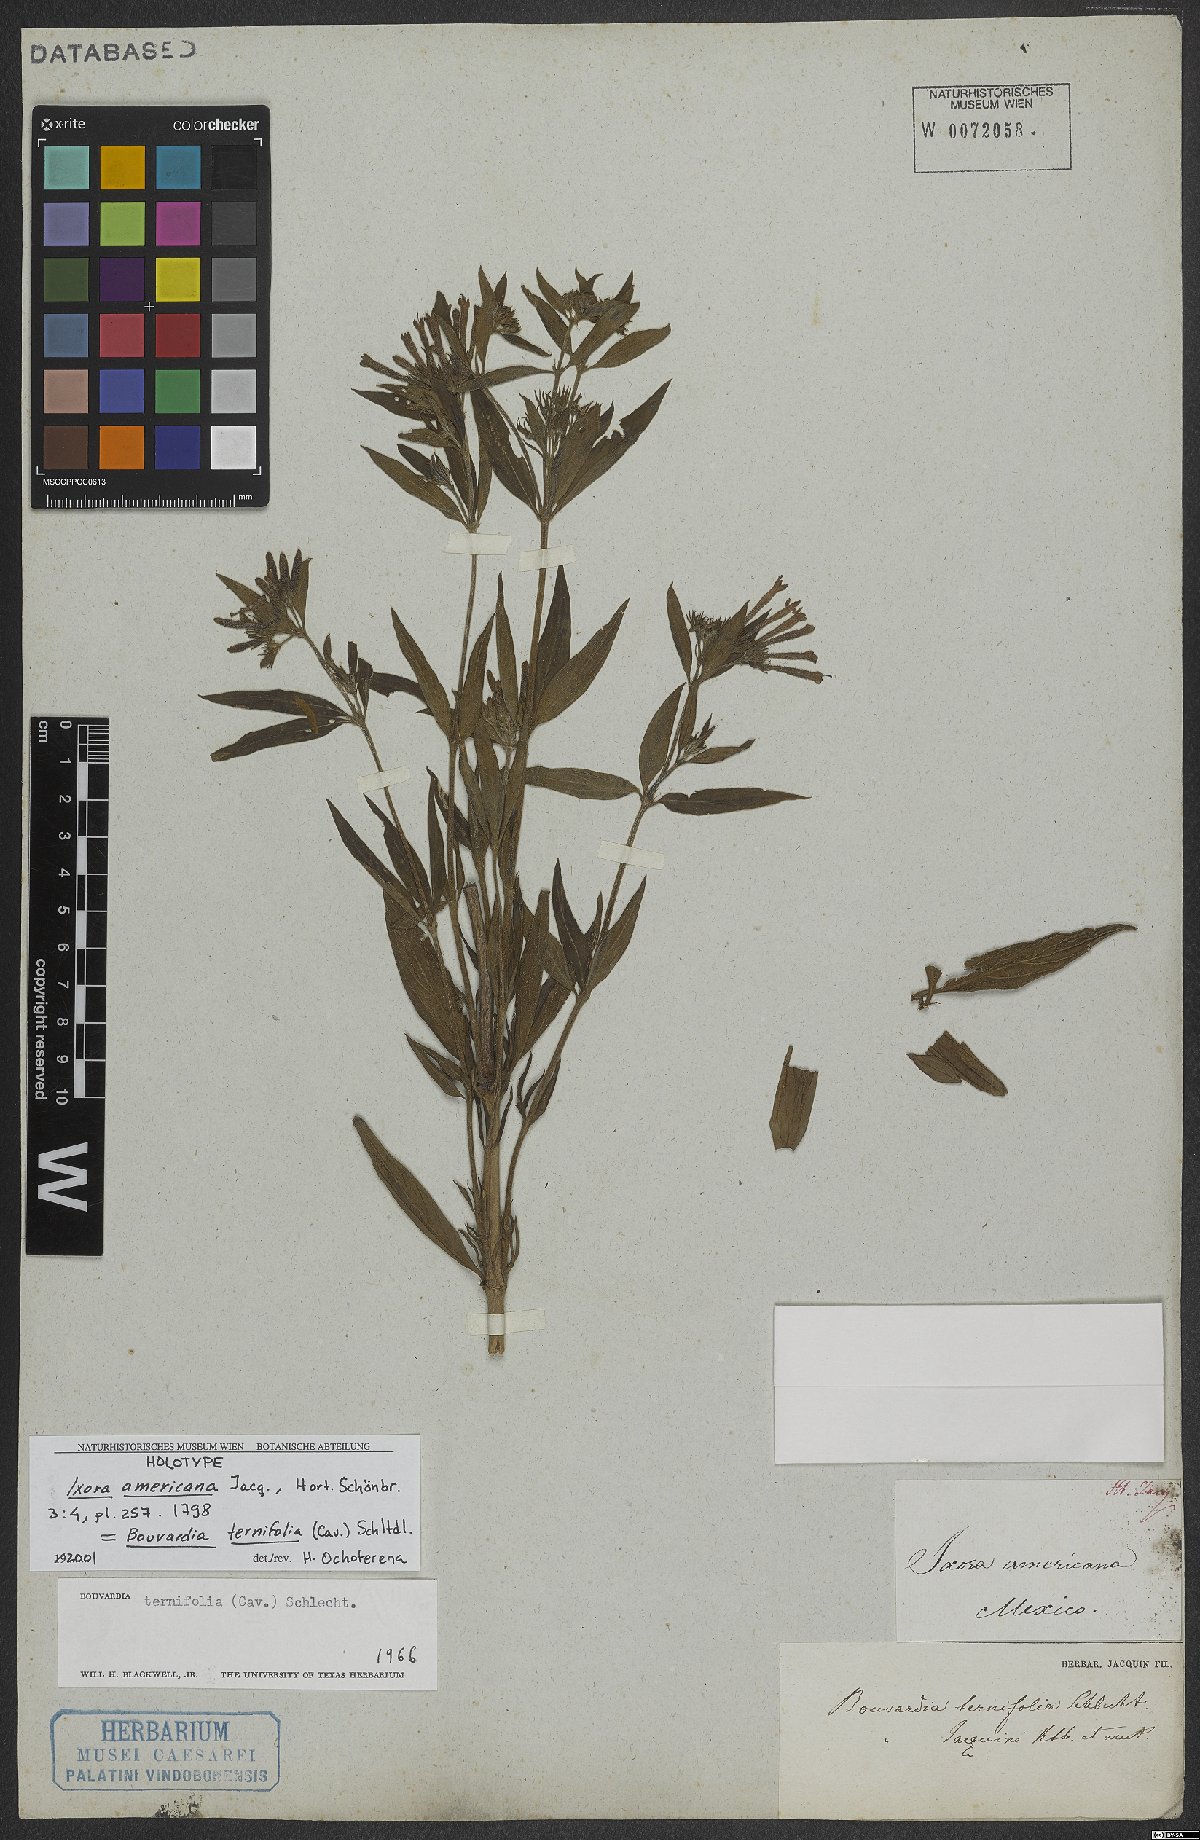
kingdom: Plantae
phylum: Tracheophyta
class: Magnoliopsida
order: Gentianales
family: Rubiaceae
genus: Bouvardia
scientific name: Bouvardia ternifolia
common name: Scarlet bouvardia
